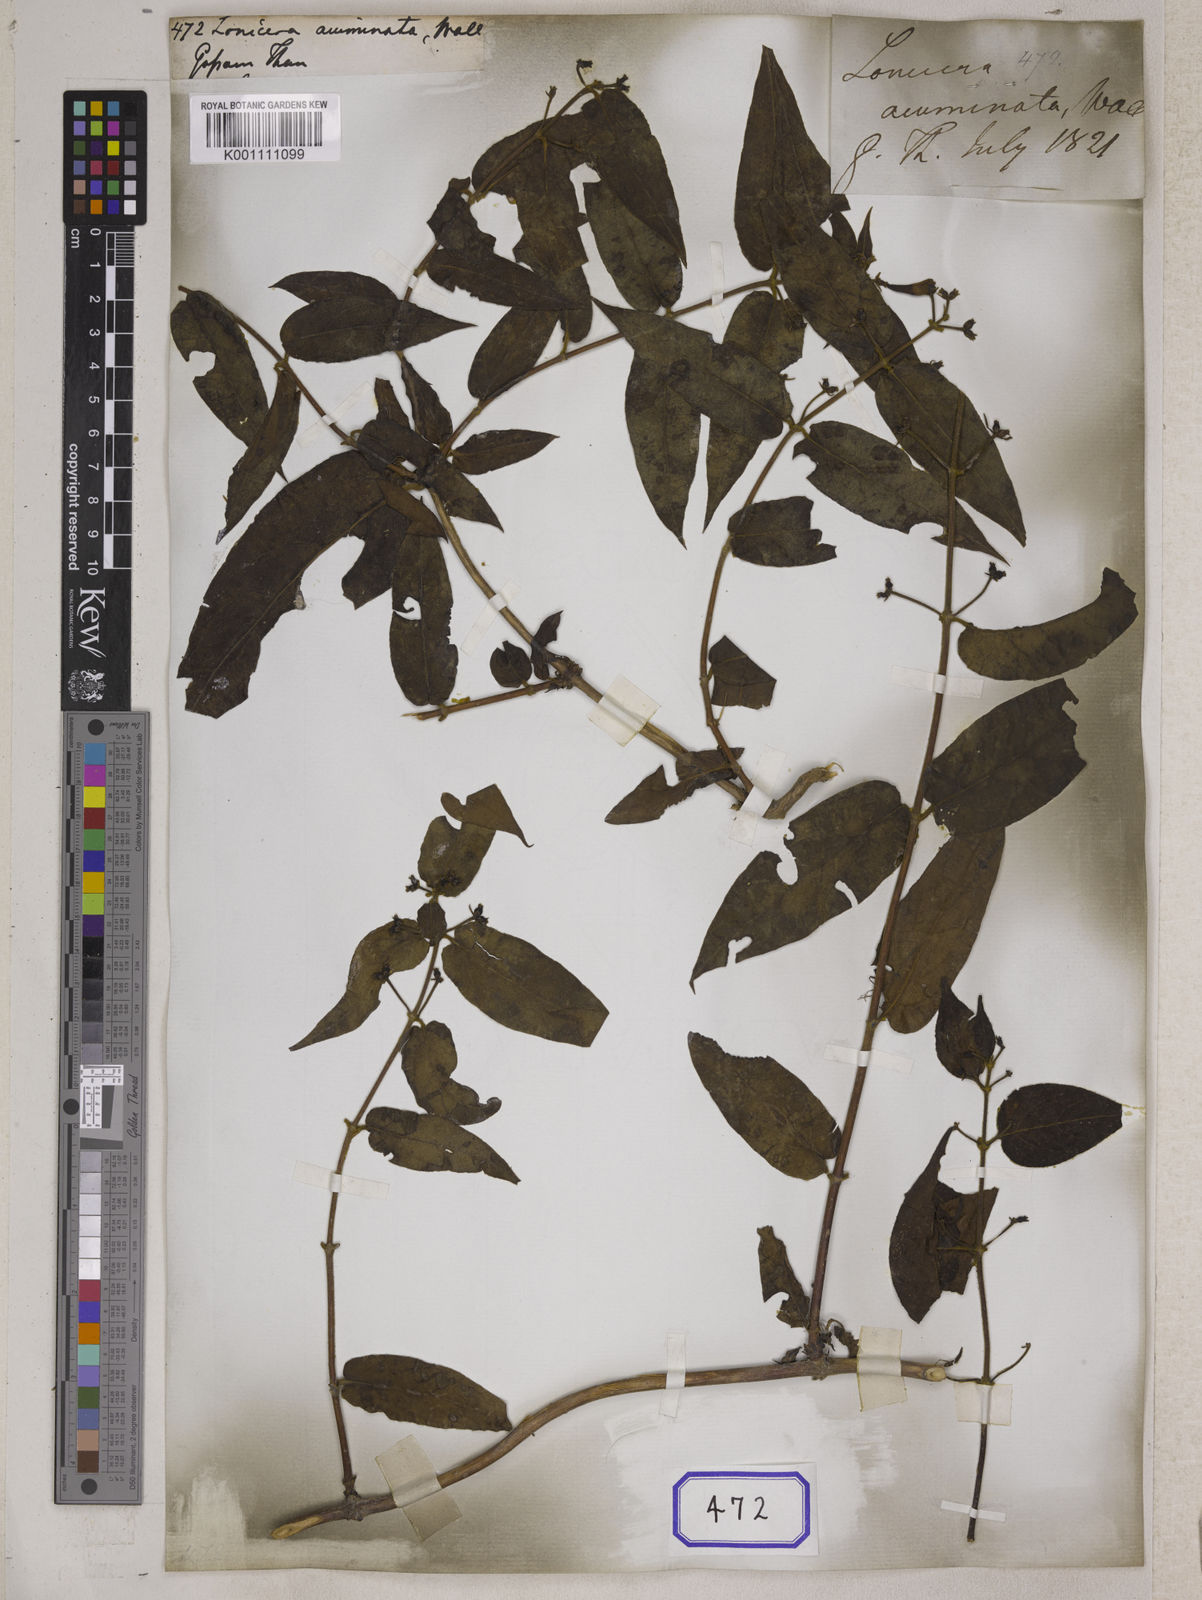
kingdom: Plantae
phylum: Tracheophyta
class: Magnoliopsida
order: Dipsacales
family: Caprifoliaceae
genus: Lonicera
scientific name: Lonicera acuminata
